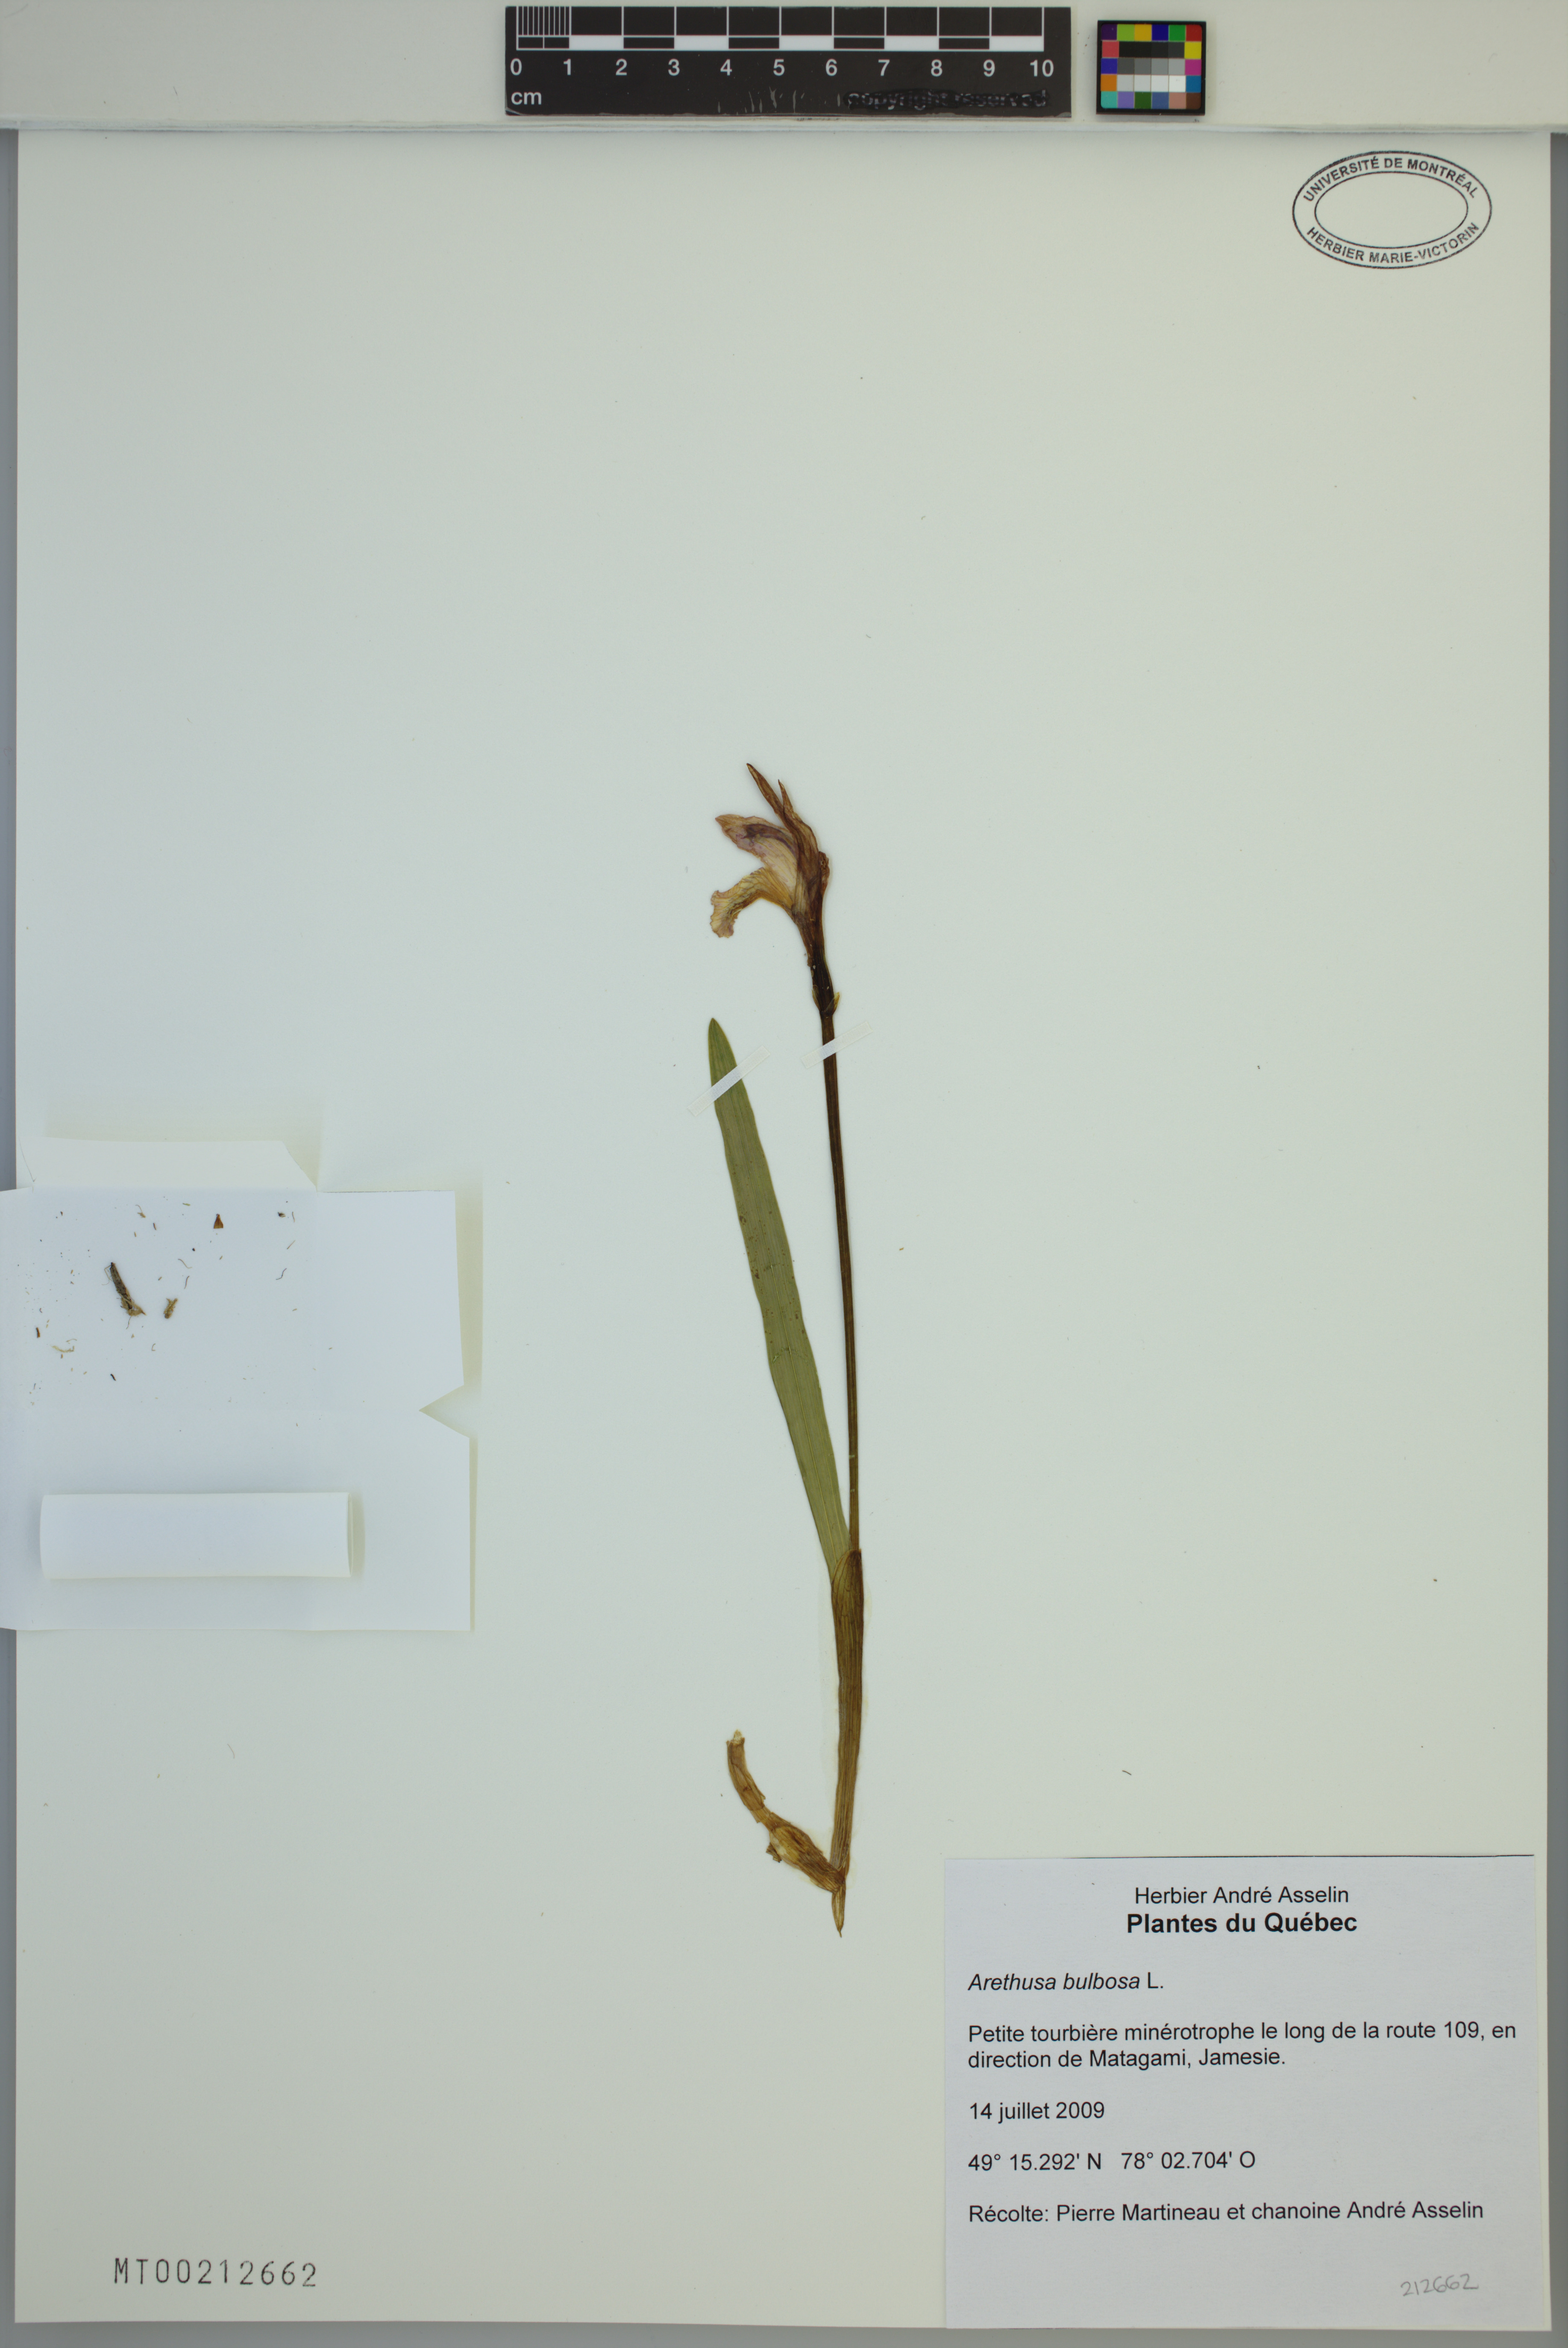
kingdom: Plantae
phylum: Tracheophyta
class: Liliopsida
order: Asparagales
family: Orchidaceae
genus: Arethusa
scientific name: Arethusa bulbosa
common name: Arethusa
